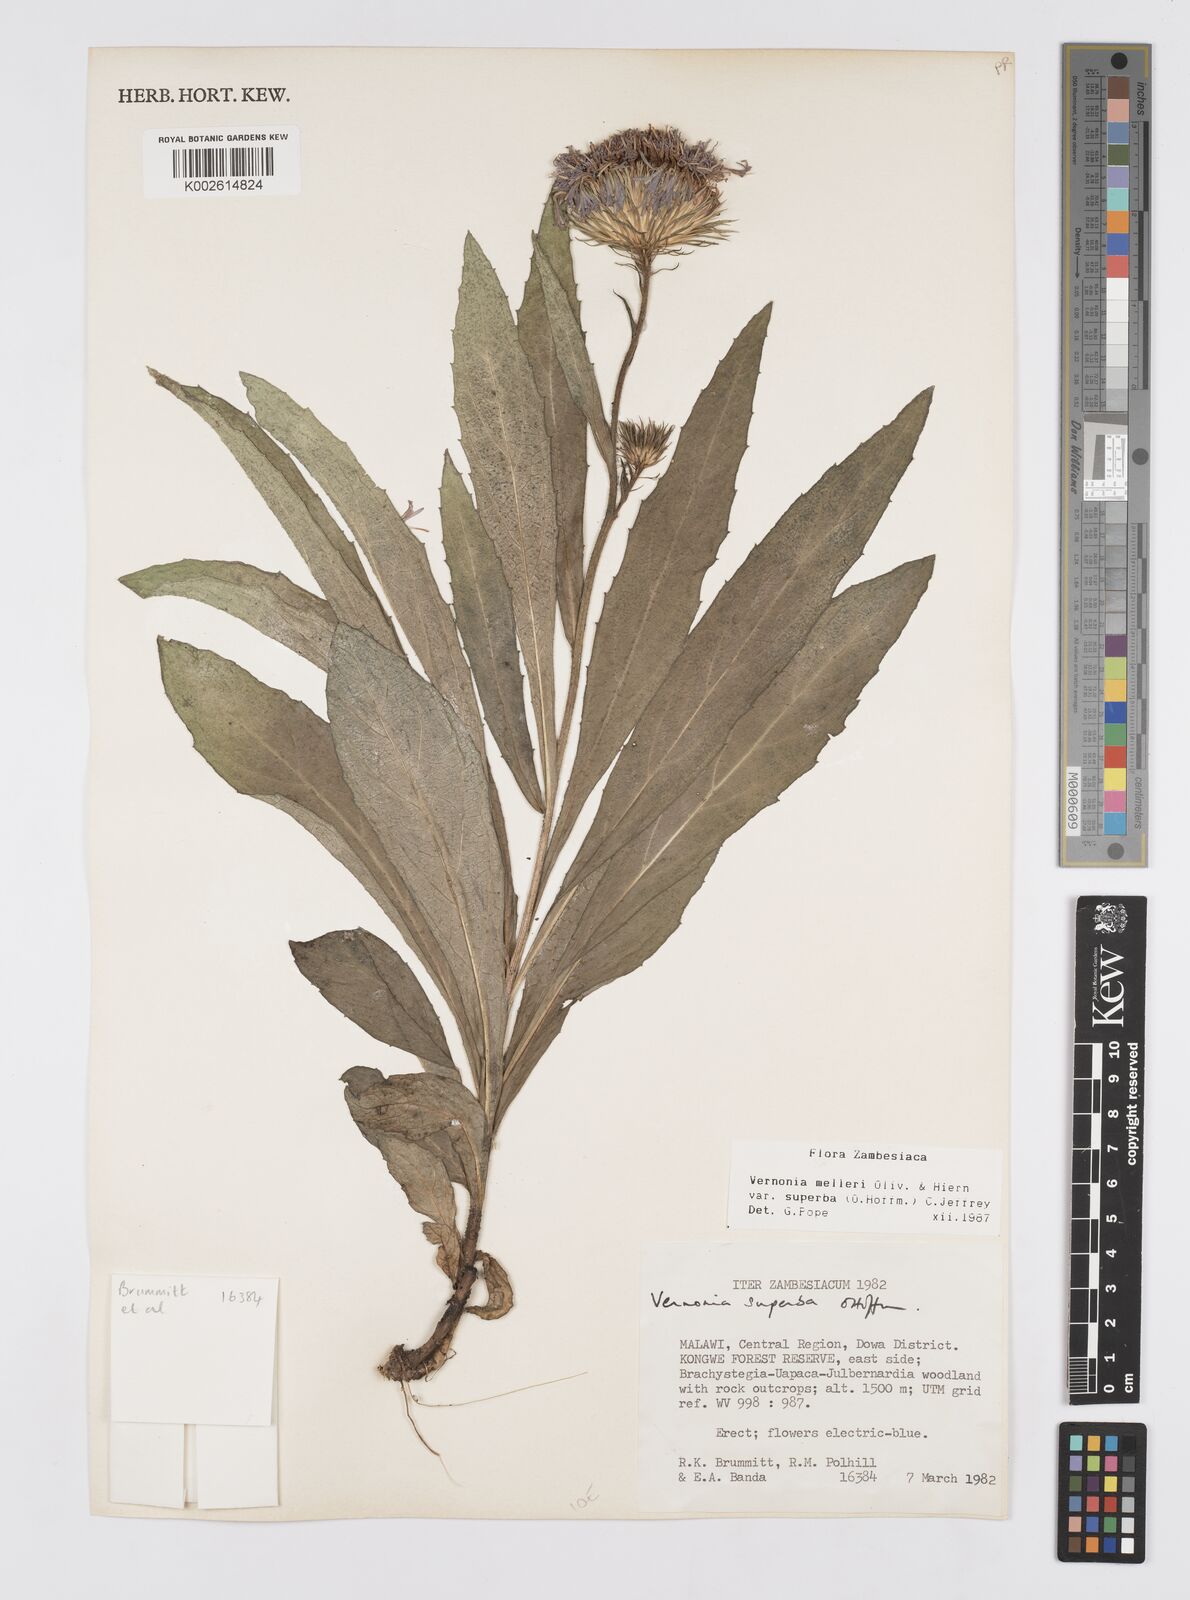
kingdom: Plantae
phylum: Tracheophyta
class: Magnoliopsida
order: Asterales
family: Asteraceae
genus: Linzia
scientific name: Linzia melleri
